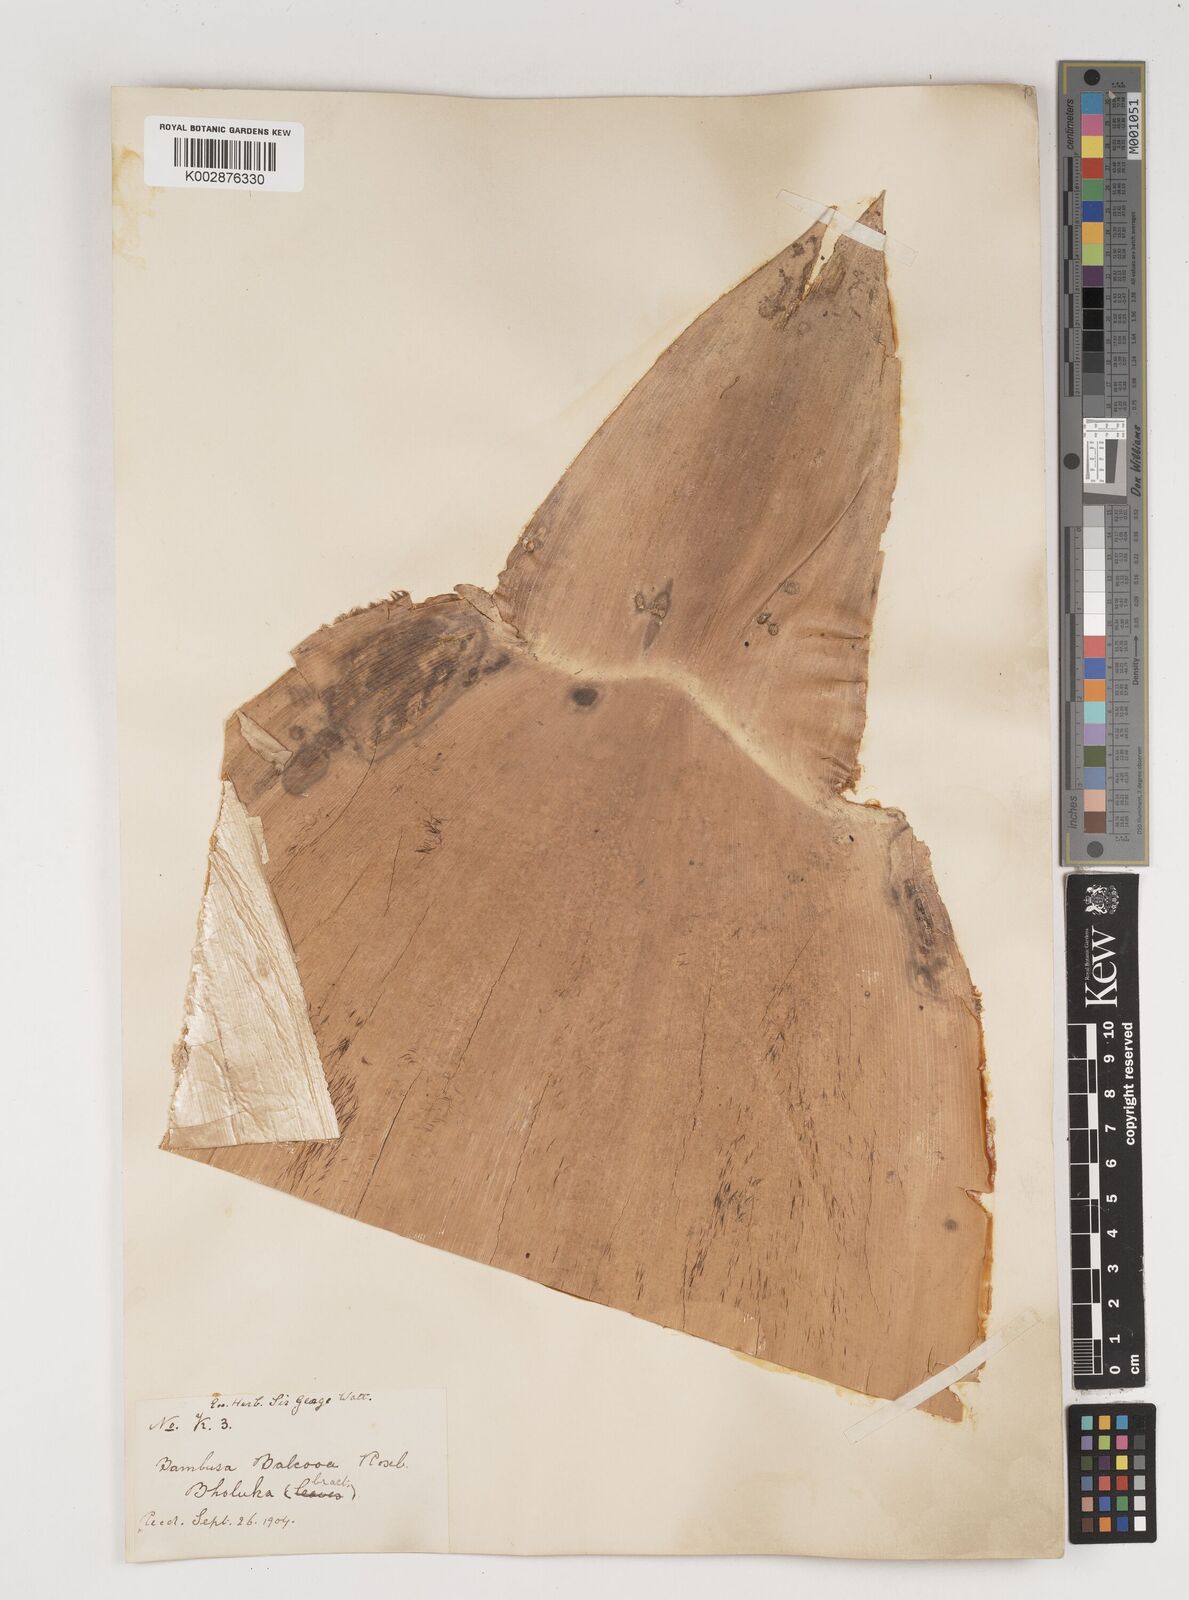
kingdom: Plantae
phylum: Tracheophyta
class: Liliopsida
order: Poales
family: Poaceae
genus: Bambusa
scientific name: Bambusa balcooa
